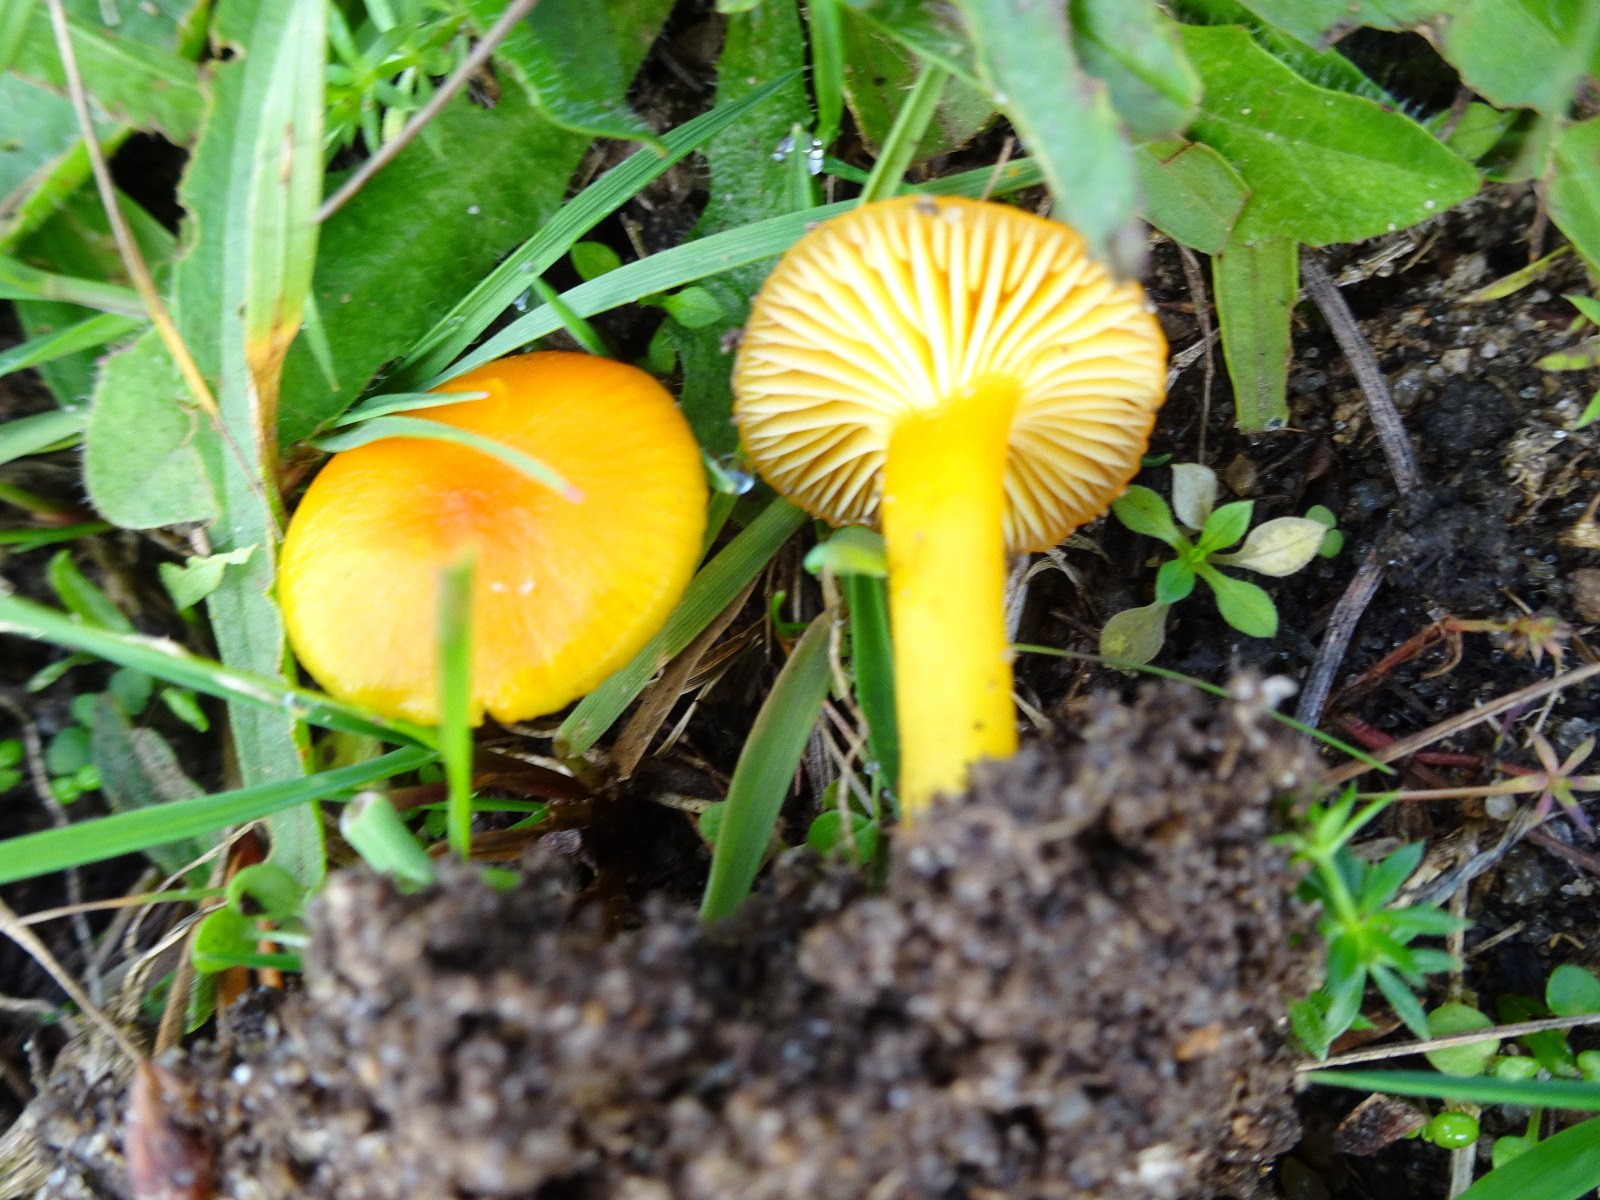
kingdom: Fungi
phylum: Basidiomycota
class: Agaricomycetes
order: Agaricales
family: Hygrophoraceae
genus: Hygrocybe
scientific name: Hygrocybe ceracea
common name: voksgul vokshat
